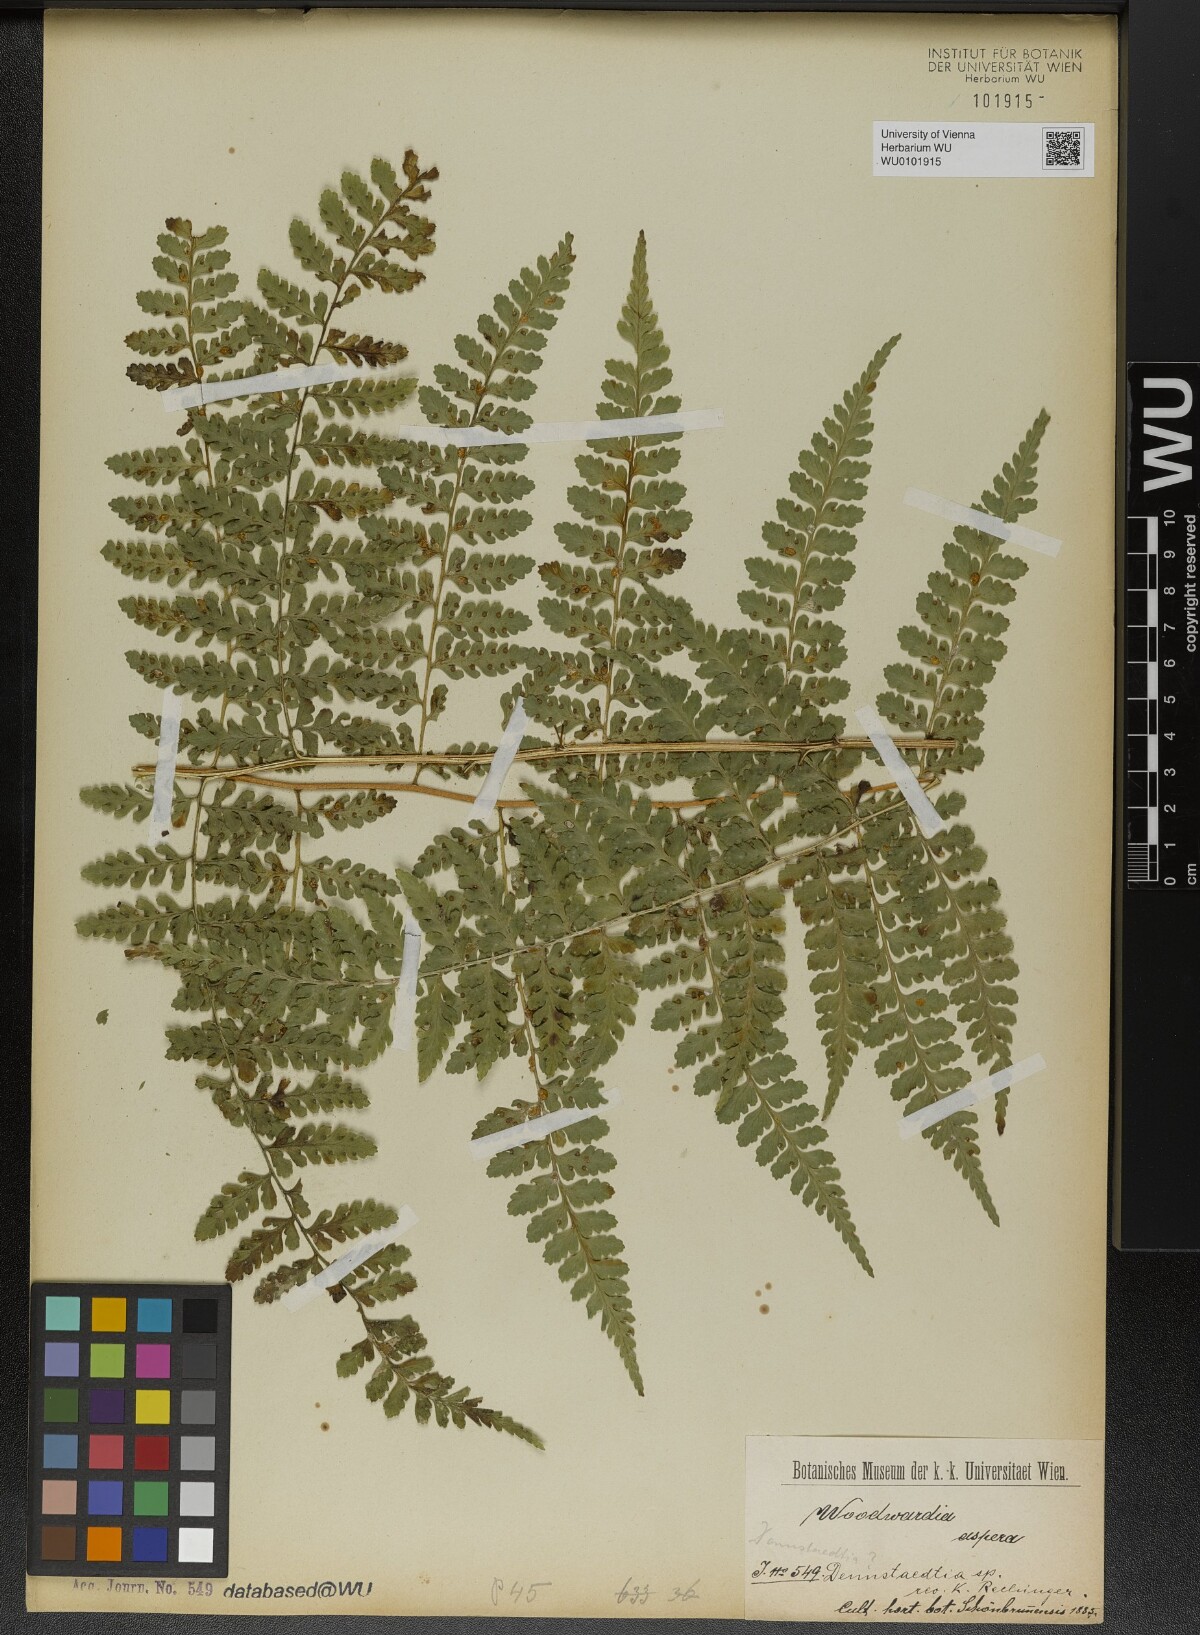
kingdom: Plantae
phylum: Tracheophyta
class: Polypodiopsida
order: Polypodiales
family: Dennstaedtiaceae
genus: Dennstaedtia
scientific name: Dennstaedtia
